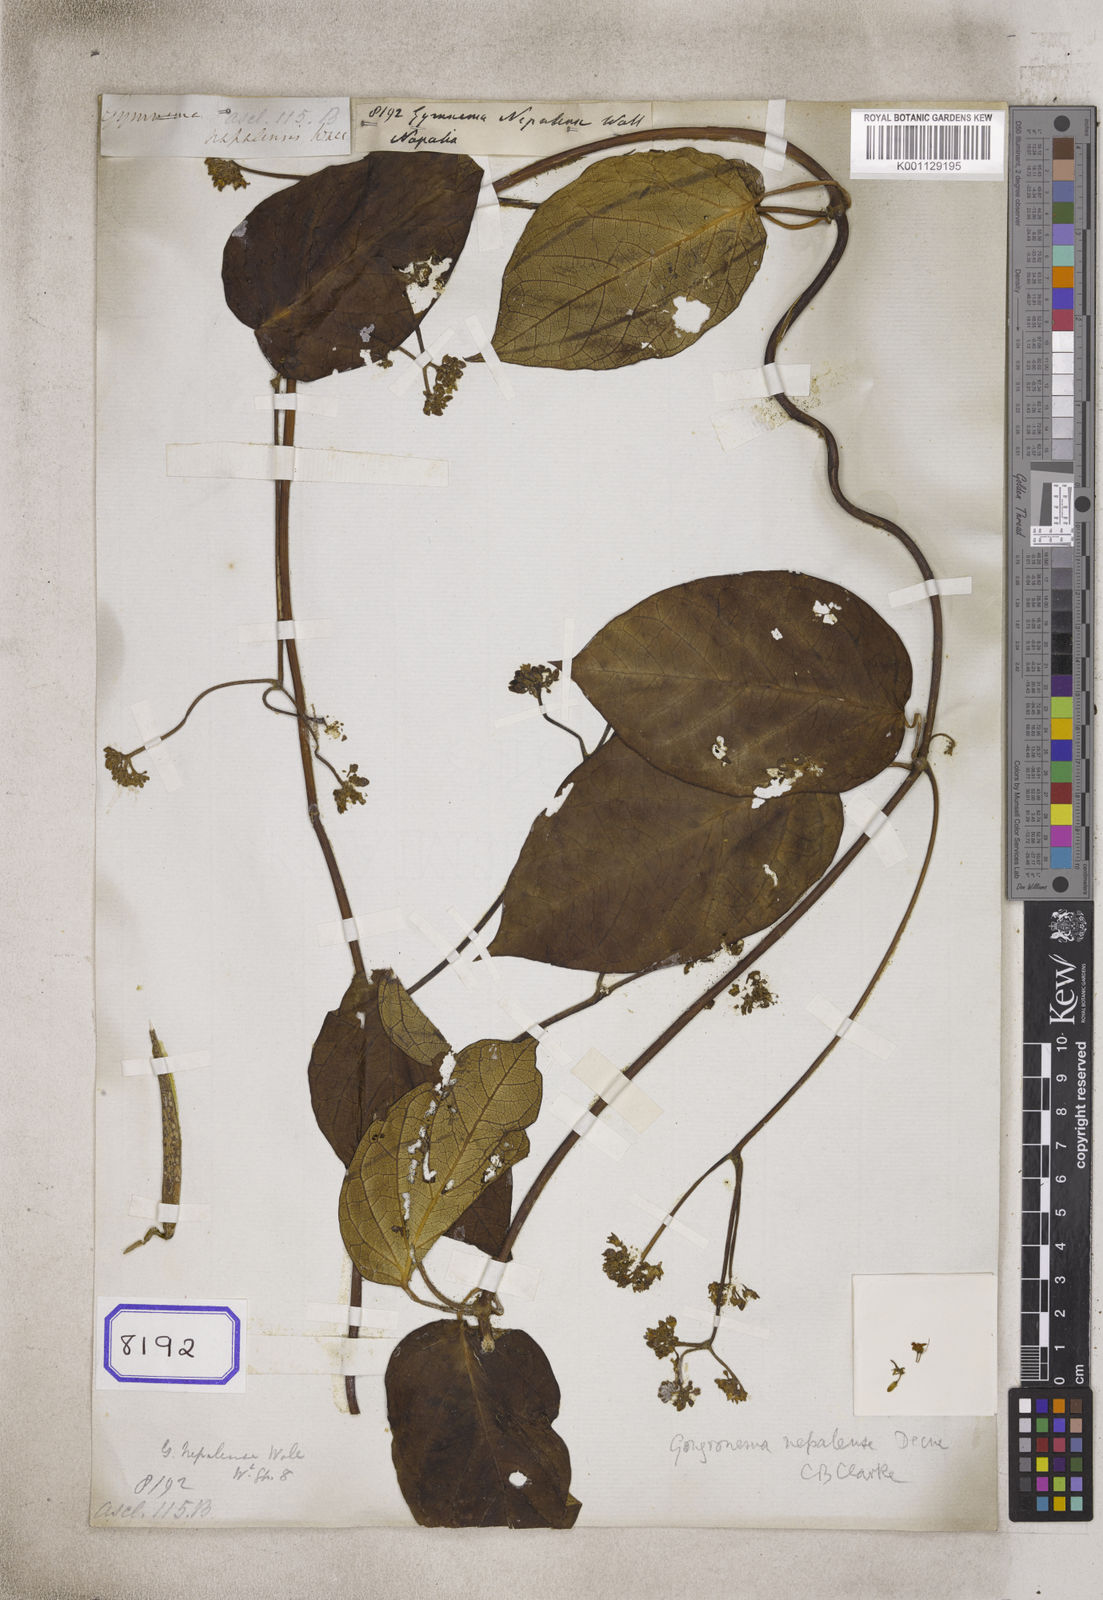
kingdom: Plantae
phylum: Tracheophyta
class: Magnoliopsida
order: Gentianales
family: Apocynaceae
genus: Gymnema
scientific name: Gymnema
